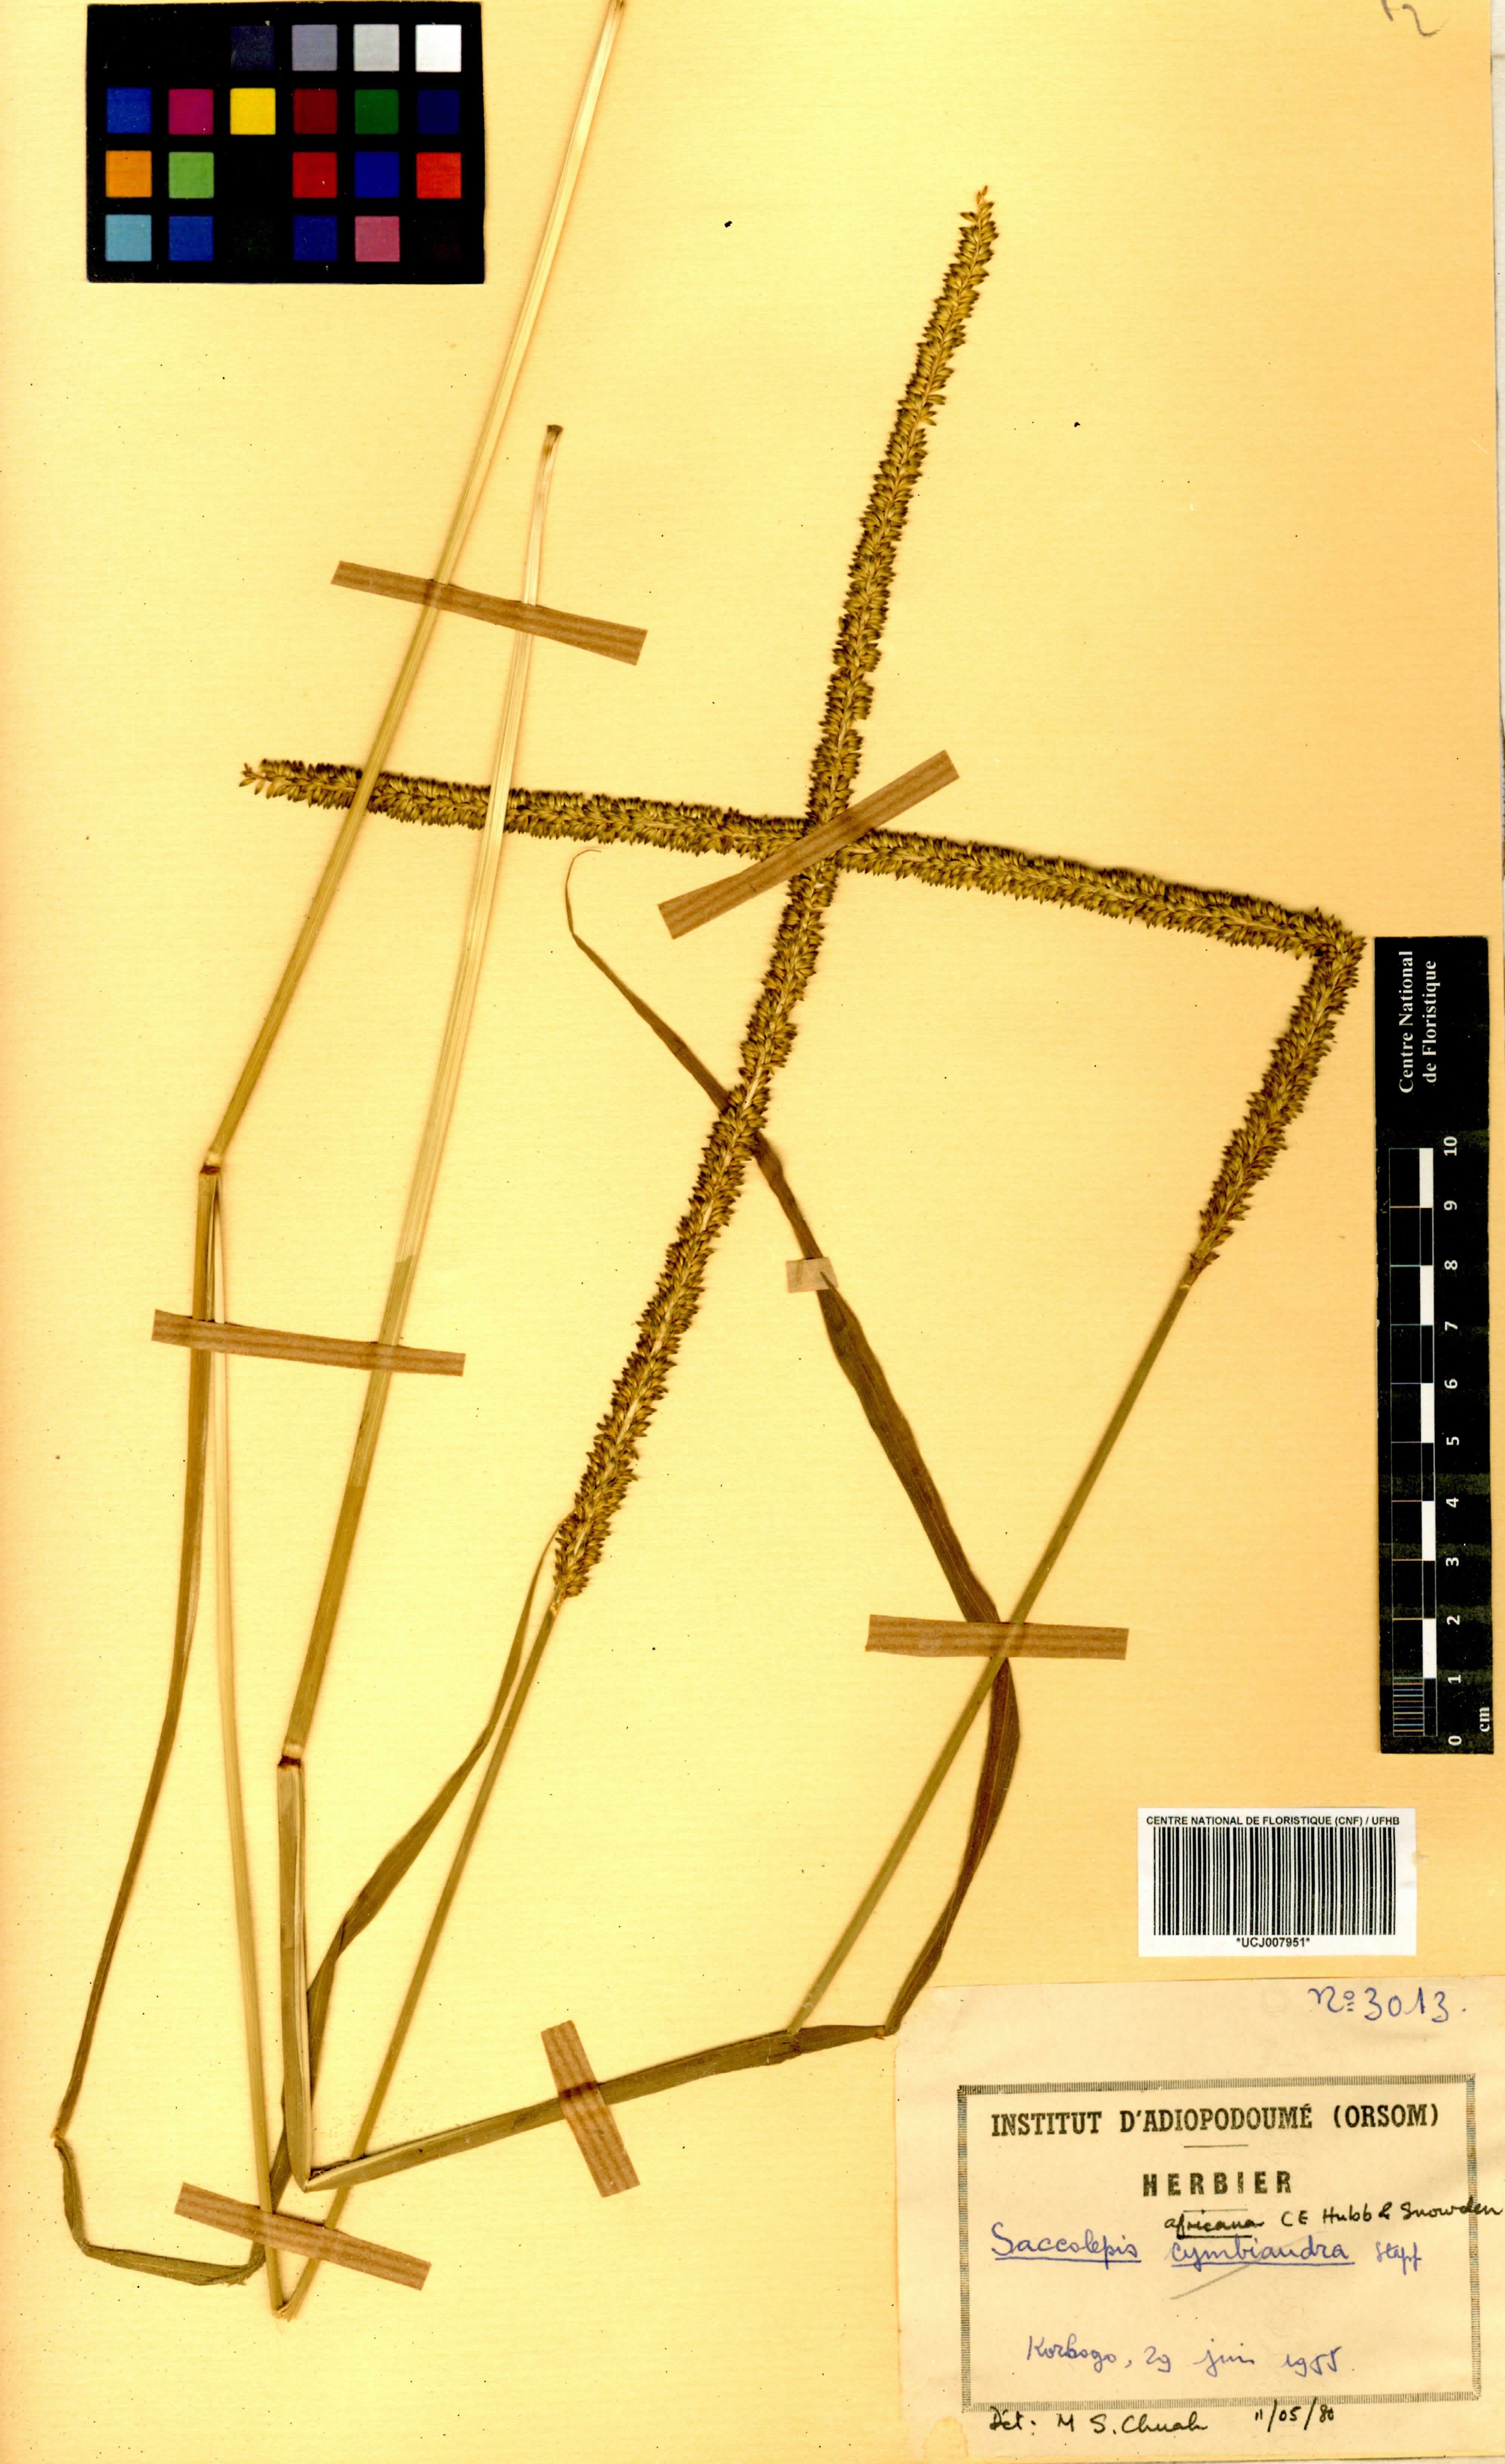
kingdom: Plantae
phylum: Tracheophyta
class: Liliopsida
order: Poales
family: Poaceae
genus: Sacciolepis
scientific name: Sacciolepis africana
